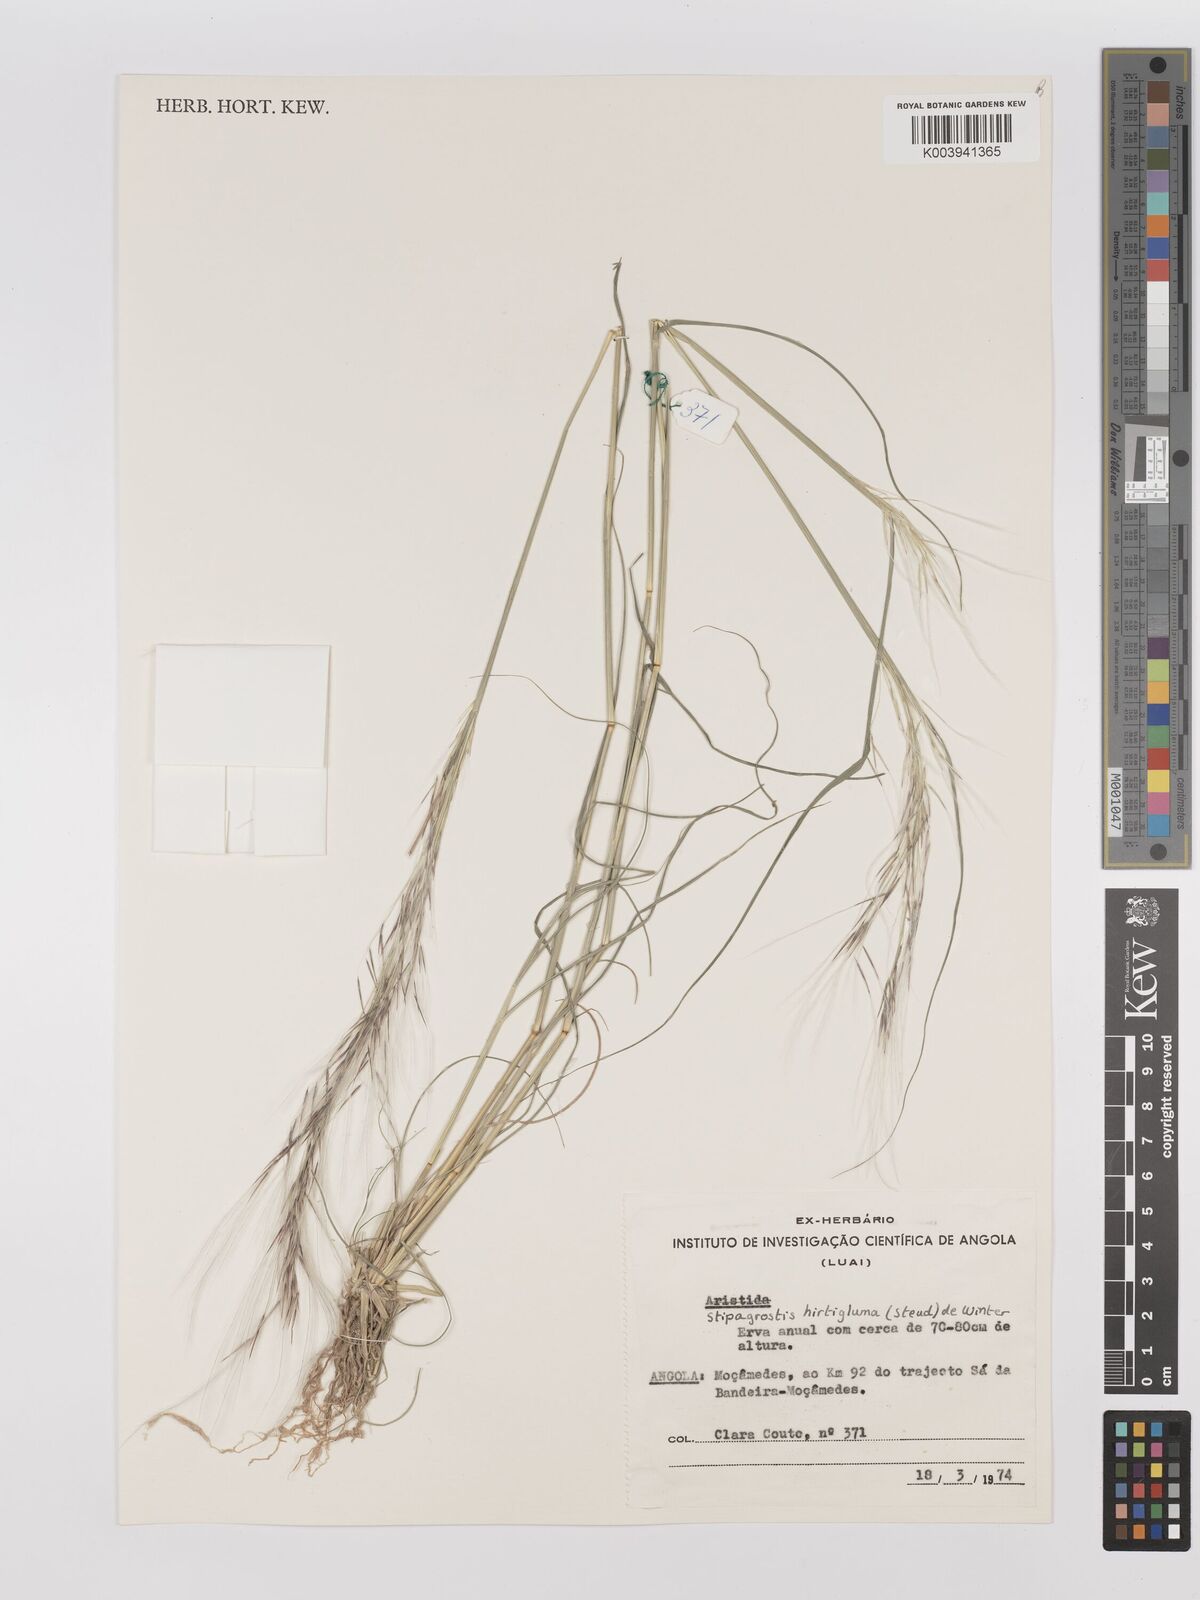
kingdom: Plantae
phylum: Tracheophyta
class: Liliopsida
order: Poales
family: Poaceae
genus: Stipagrostis
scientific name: Stipagrostis hirtigluma
